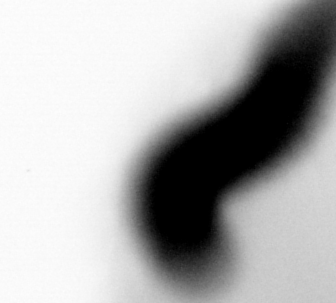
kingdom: Animalia
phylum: Annelida
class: Polychaeta
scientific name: Polychaeta
